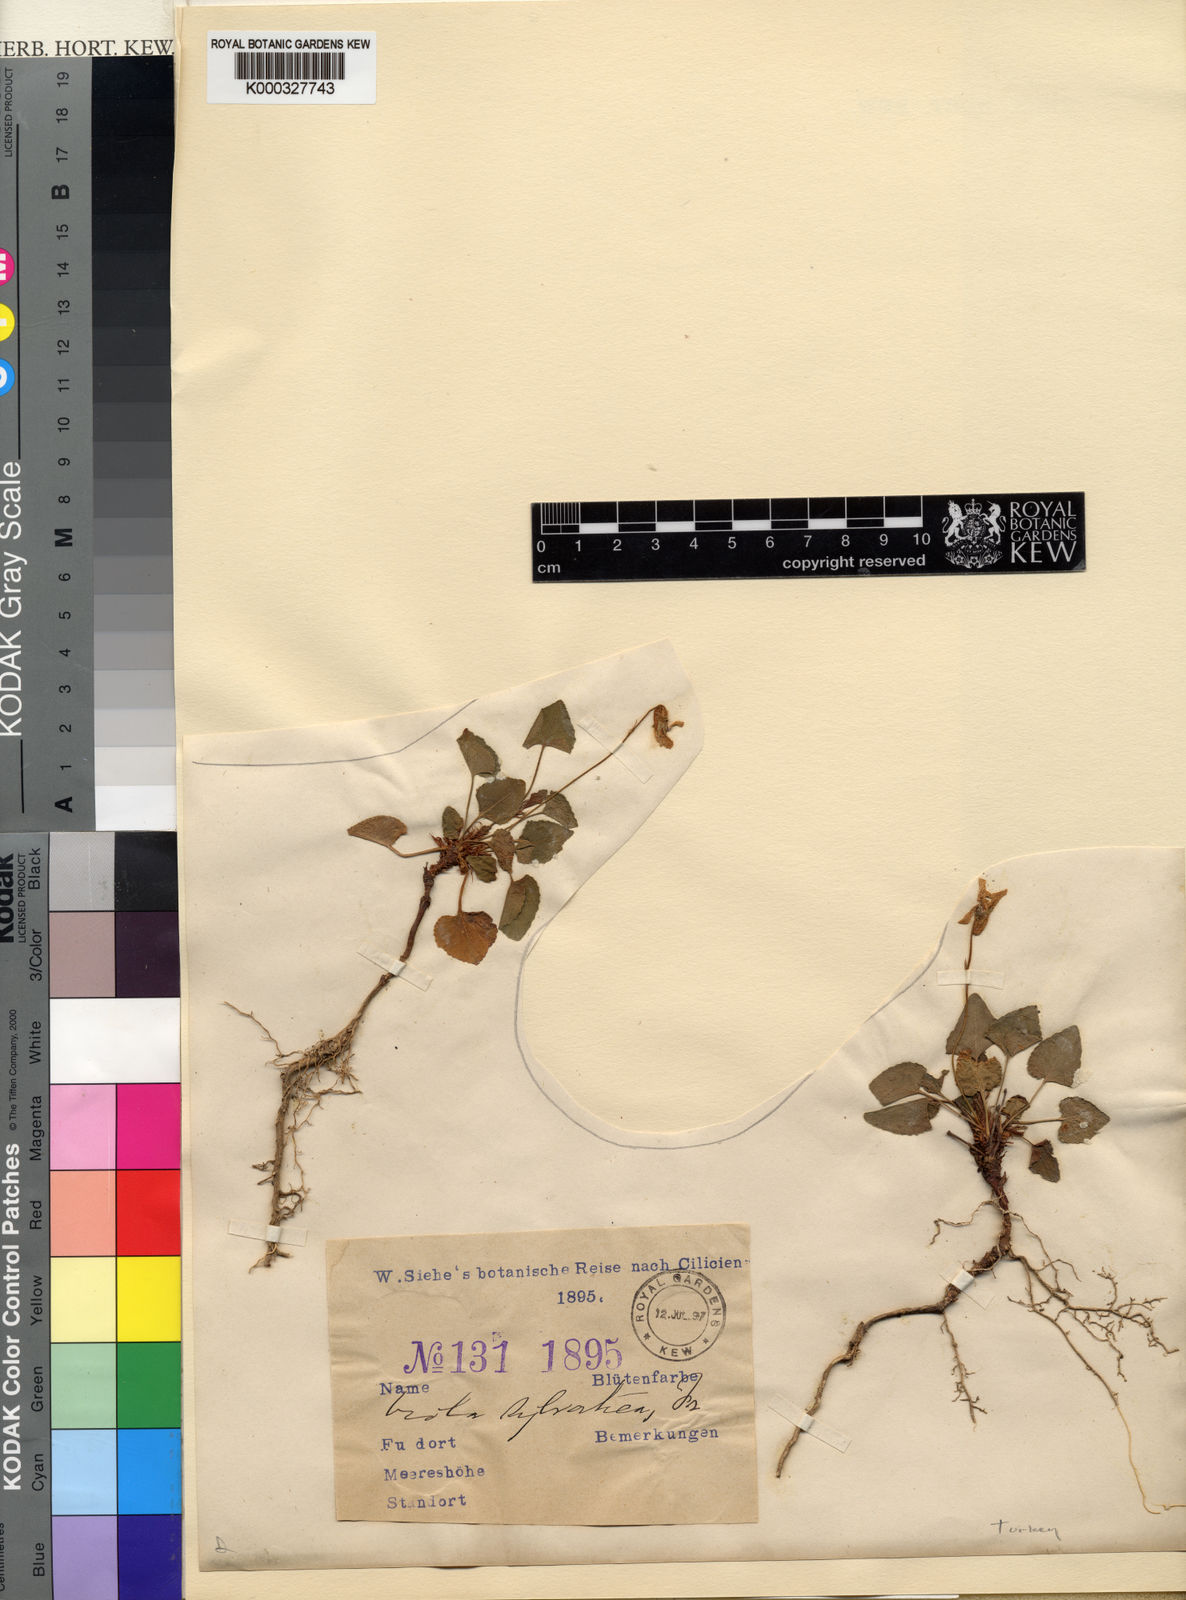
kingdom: Plantae
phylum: Tracheophyta
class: Magnoliopsida
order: Malpighiales
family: Violaceae
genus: Viola
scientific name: Viola sieheana
